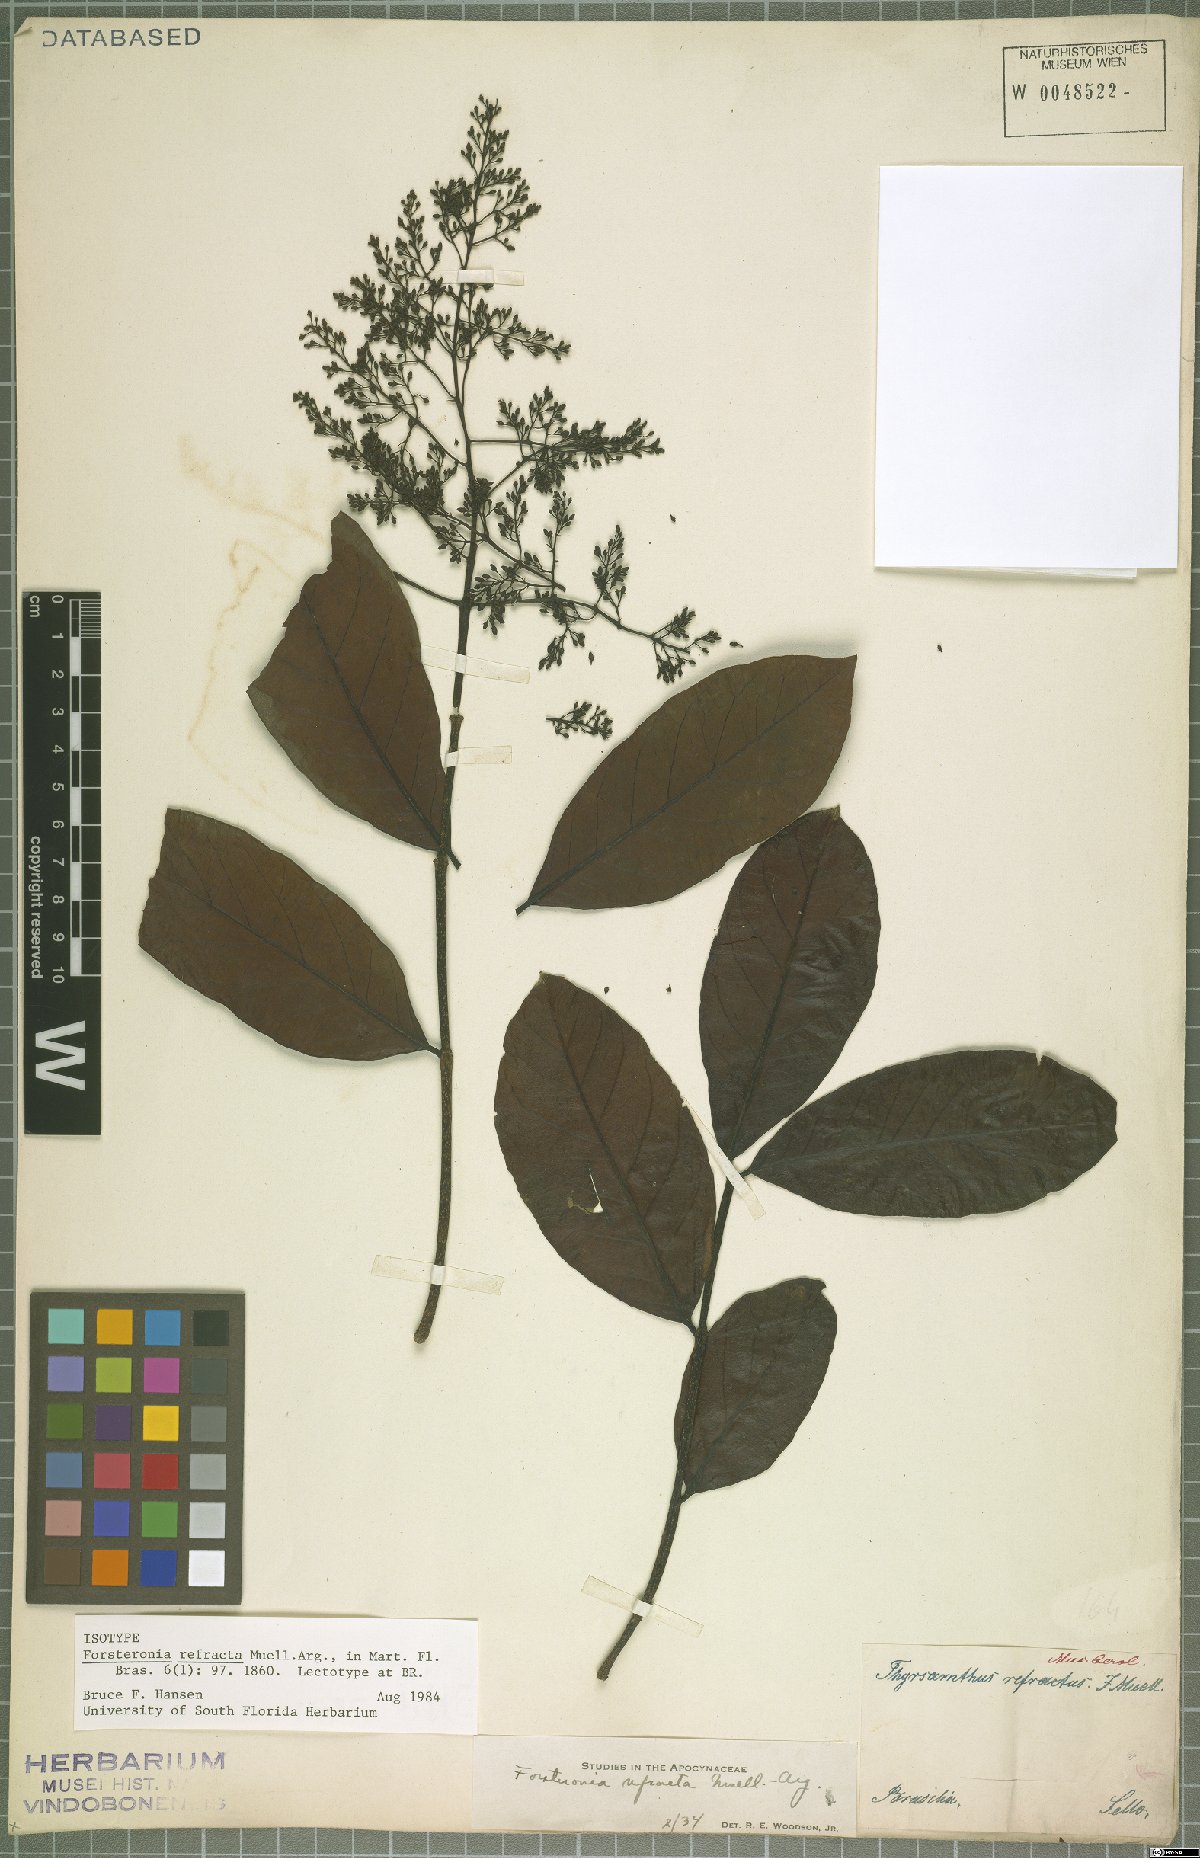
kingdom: Plantae
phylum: Tracheophyta
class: Magnoliopsida
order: Gentianales
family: Apocynaceae
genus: Forsteronia
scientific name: Forsteronia refracta
